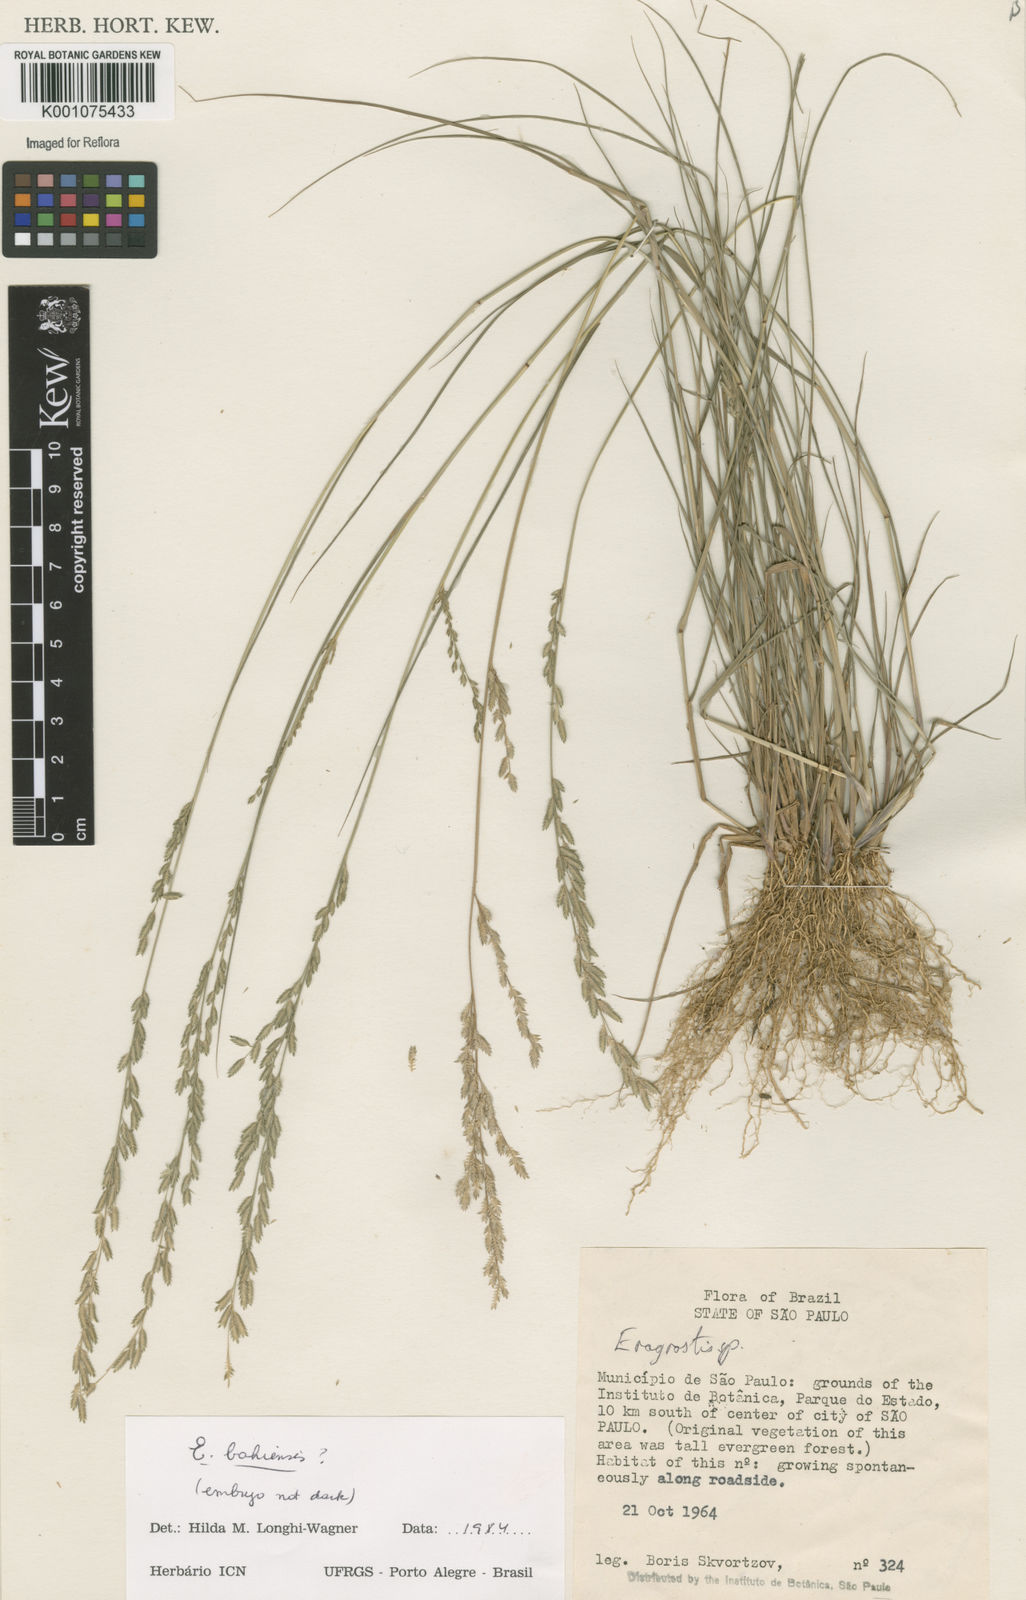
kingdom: Plantae
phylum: Tracheophyta
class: Liliopsida
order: Poales
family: Poaceae
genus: Eragrostis
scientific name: Eragrostis rufescens
